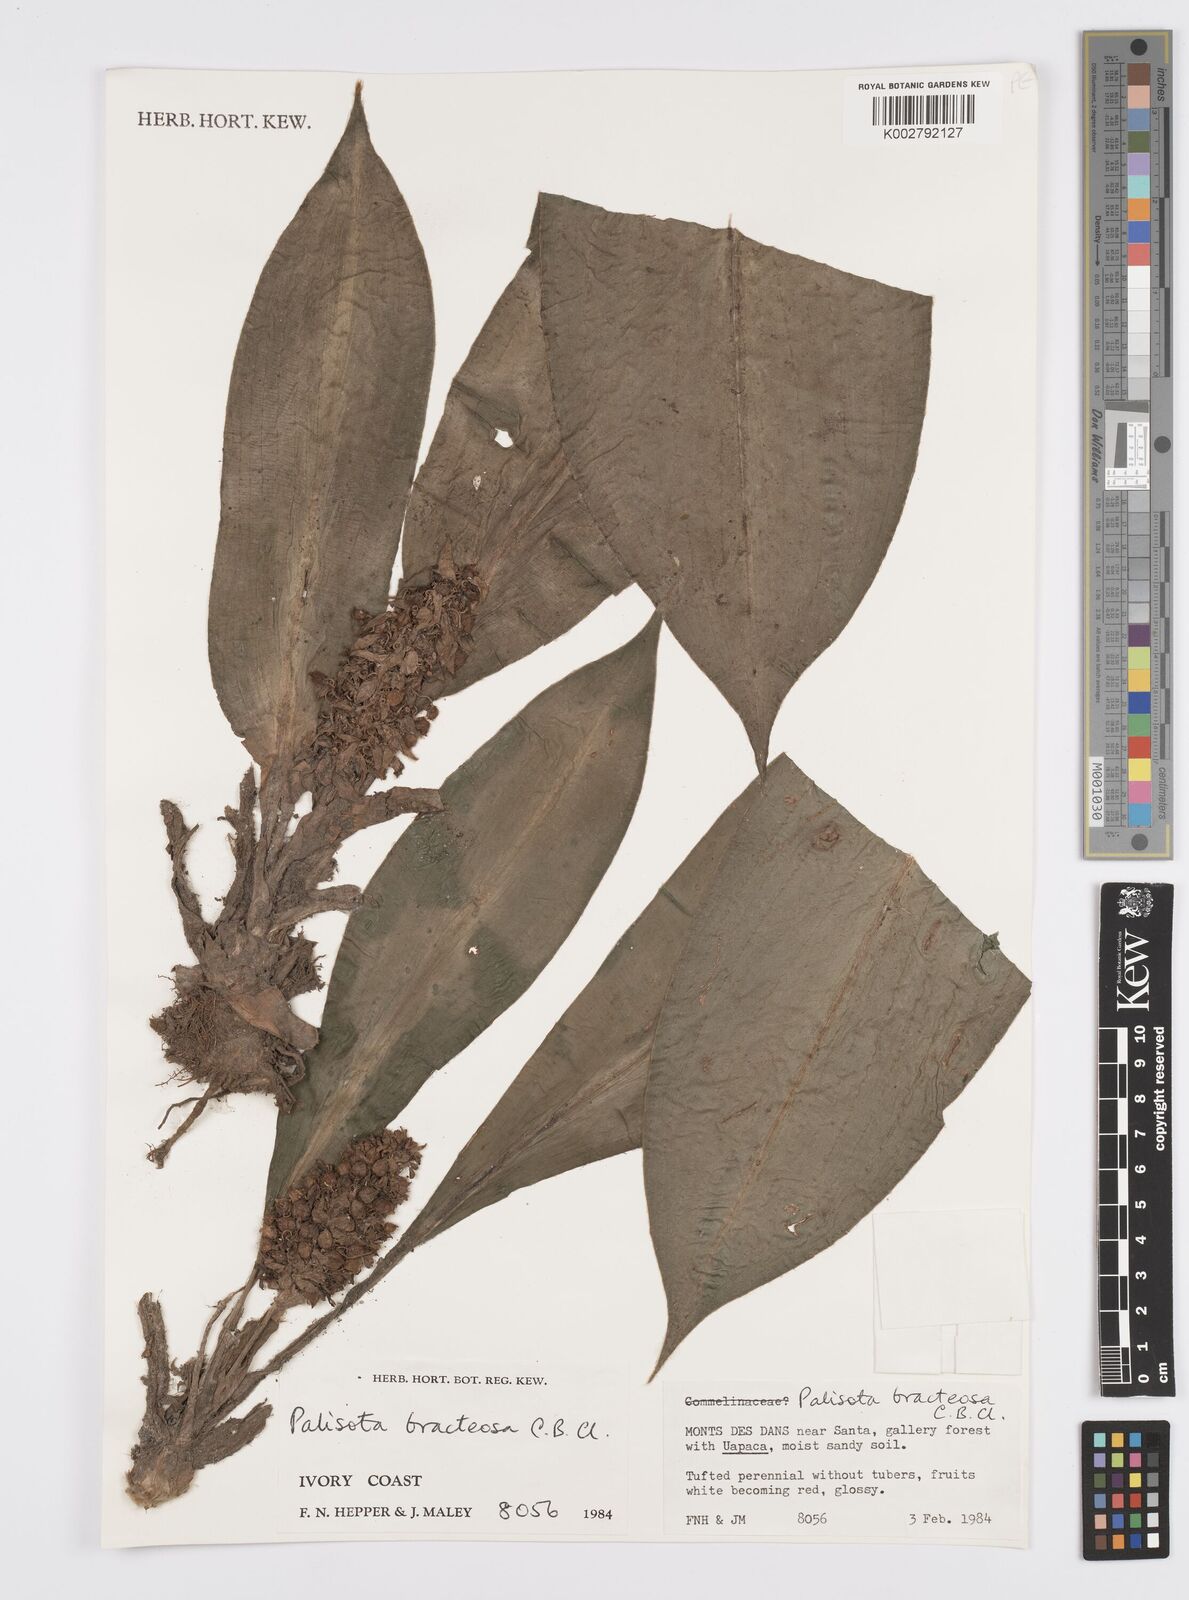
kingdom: Plantae
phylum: Tracheophyta
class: Liliopsida
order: Commelinales
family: Commelinaceae
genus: Palisota
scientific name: Palisota bracteosa
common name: Palisota
